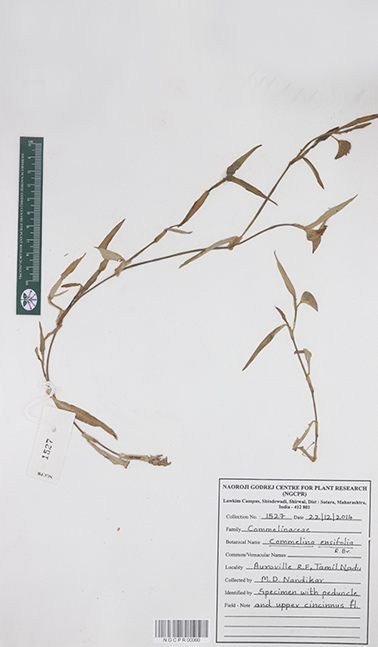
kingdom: Plantae
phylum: Tracheophyta
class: Liliopsida
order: Commelinales
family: Commelinaceae
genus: Commelina
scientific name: Commelina ensifolia
